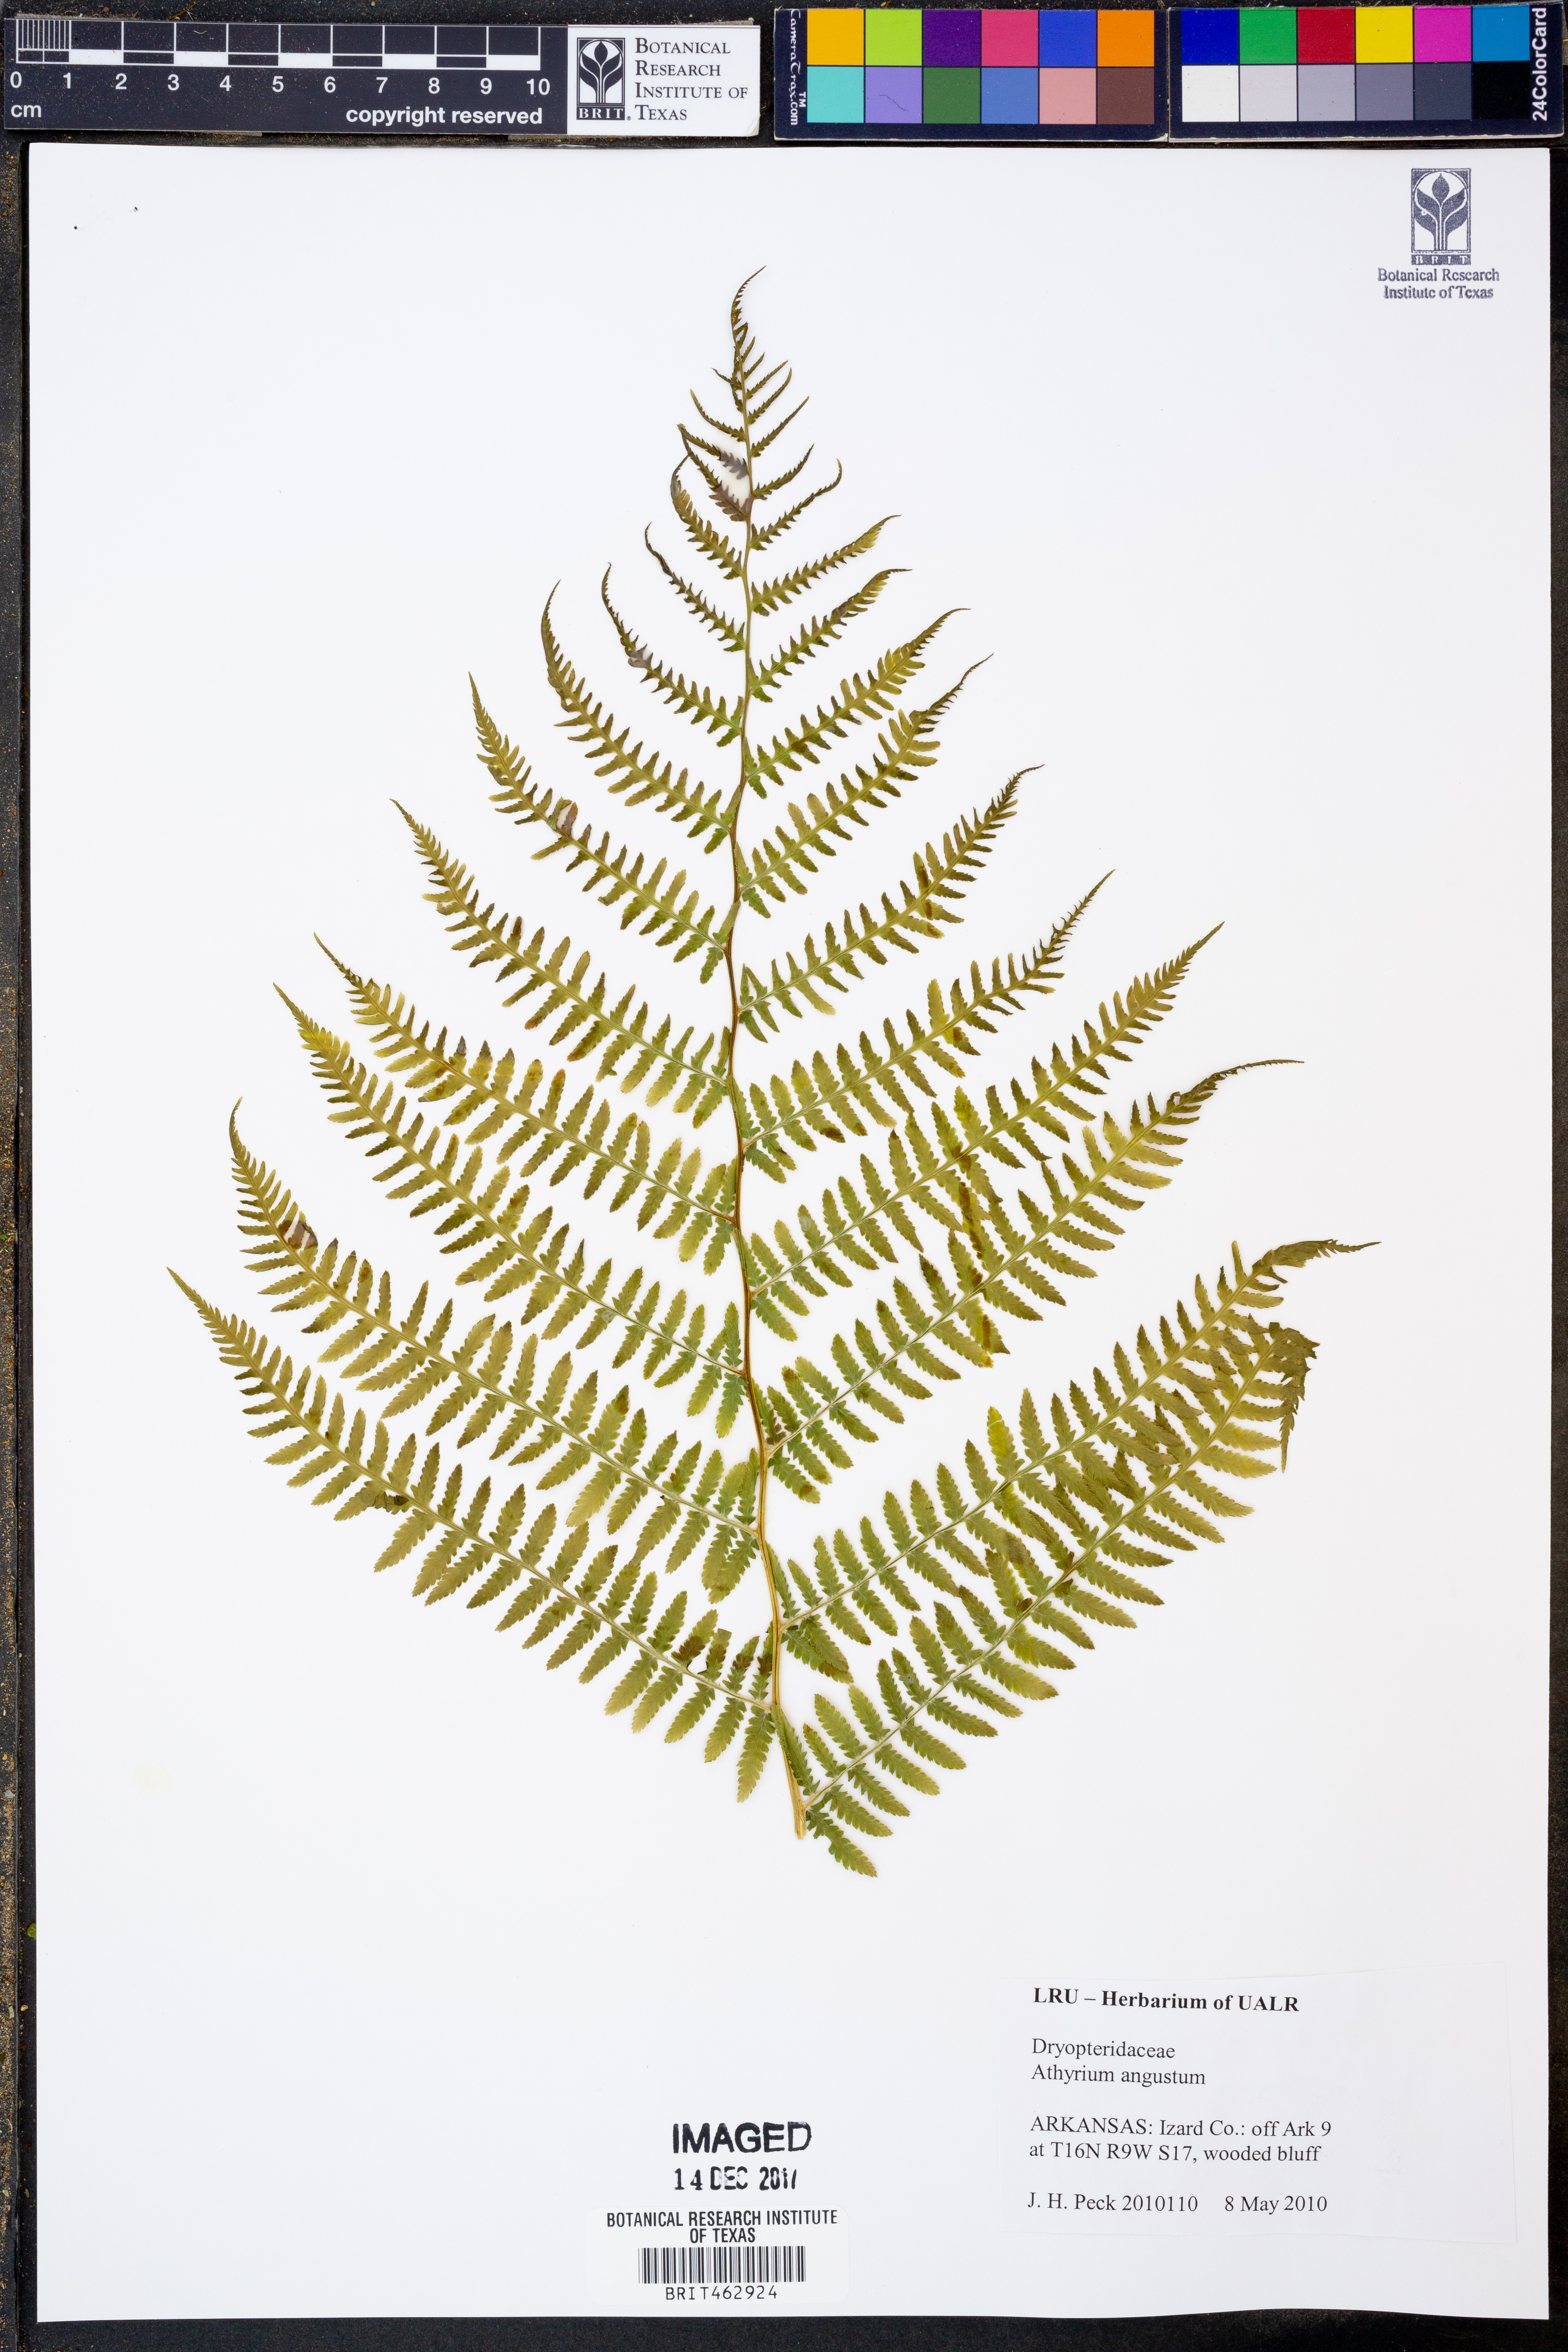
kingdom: Plantae
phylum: Tracheophyta
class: Polypodiopsida
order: Polypodiales
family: Athyriaceae
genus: Athyrium
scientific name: Athyrium angustum
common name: Northern lady fern
